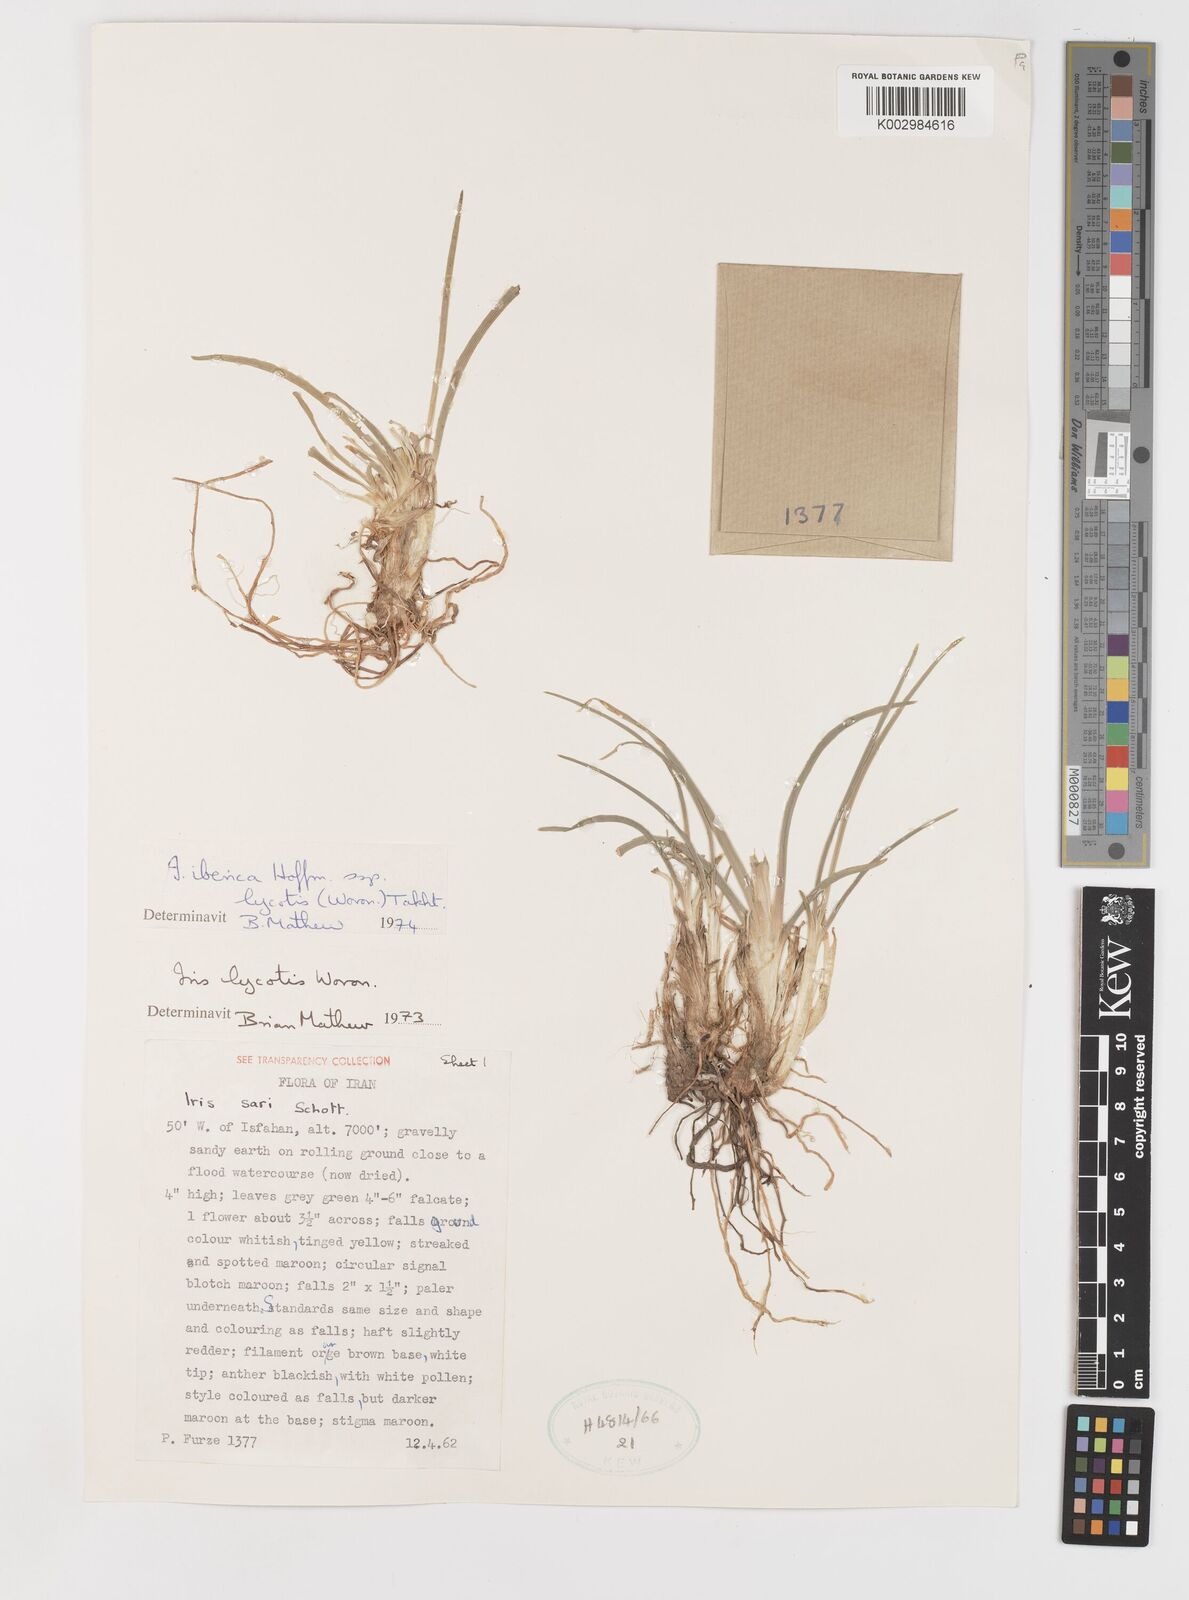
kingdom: Plantae
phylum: Tracheophyta
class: Liliopsida
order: Asparagales
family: Iridaceae
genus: Iris
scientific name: Iris lycotis
